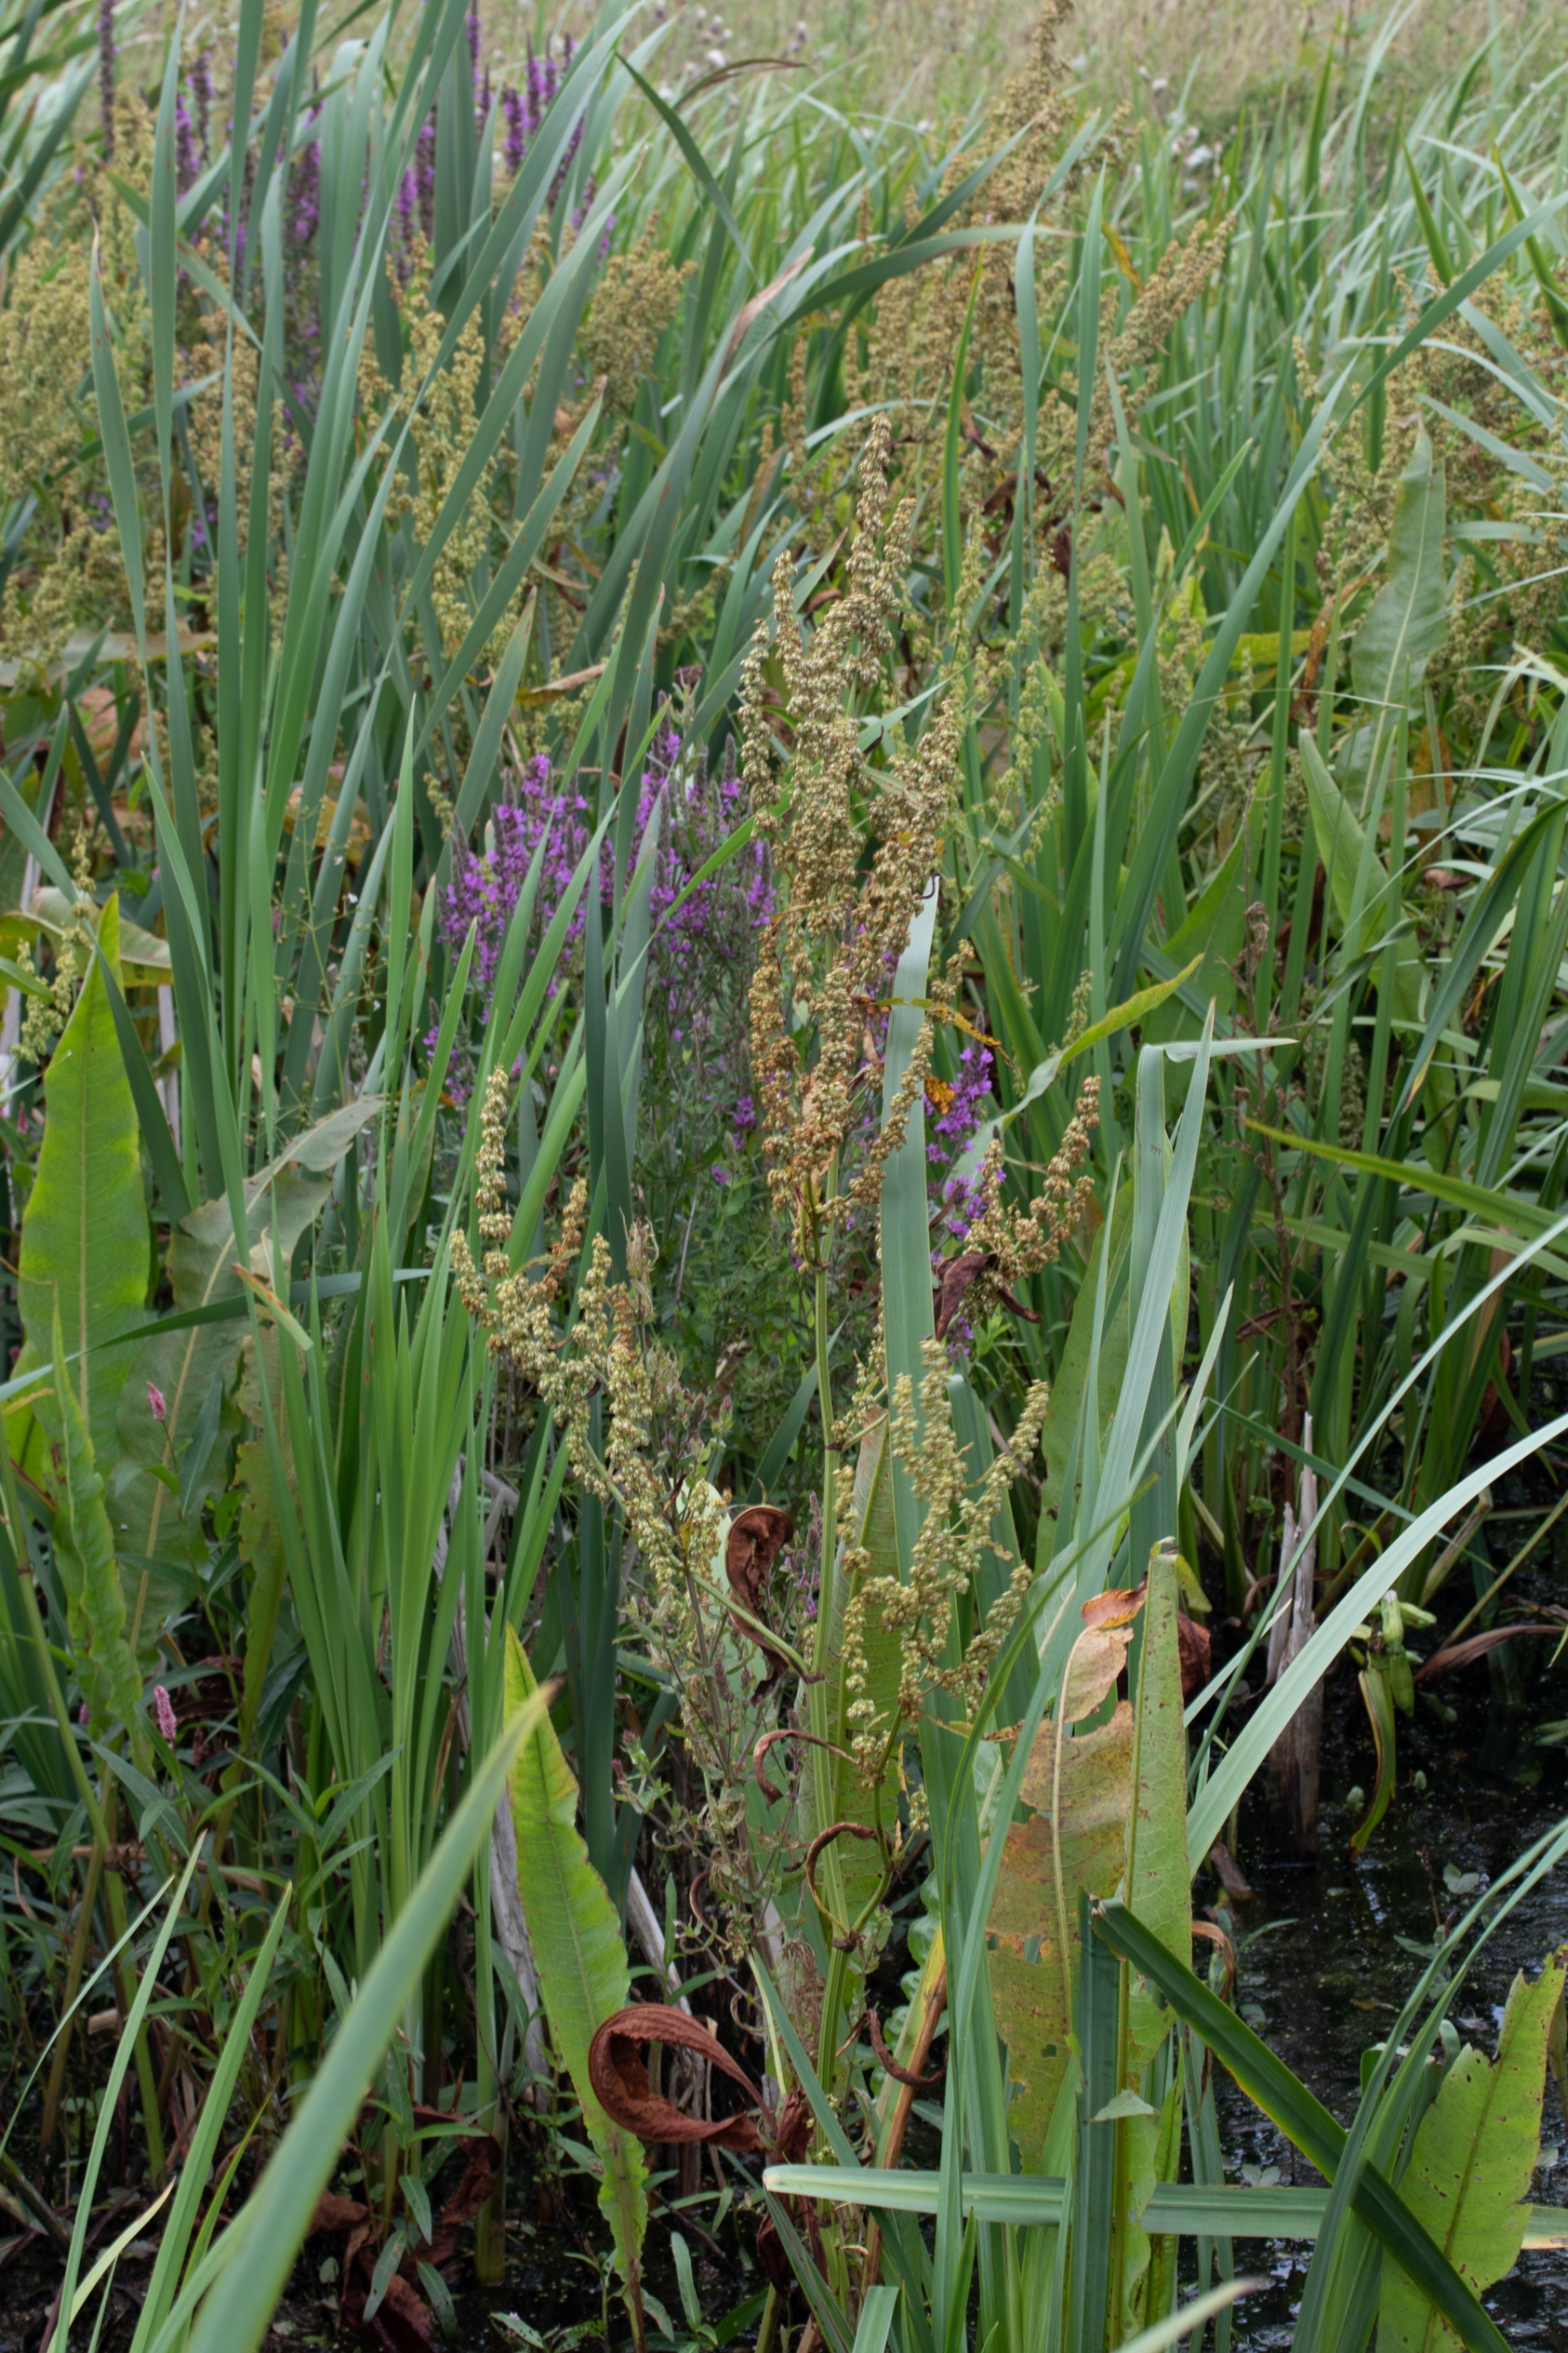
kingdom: Plantae
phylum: Tracheophyta
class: Magnoliopsida
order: Caryophyllales
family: Polygonaceae
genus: Rumex
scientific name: Rumex palustris
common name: Sump-skræppe
